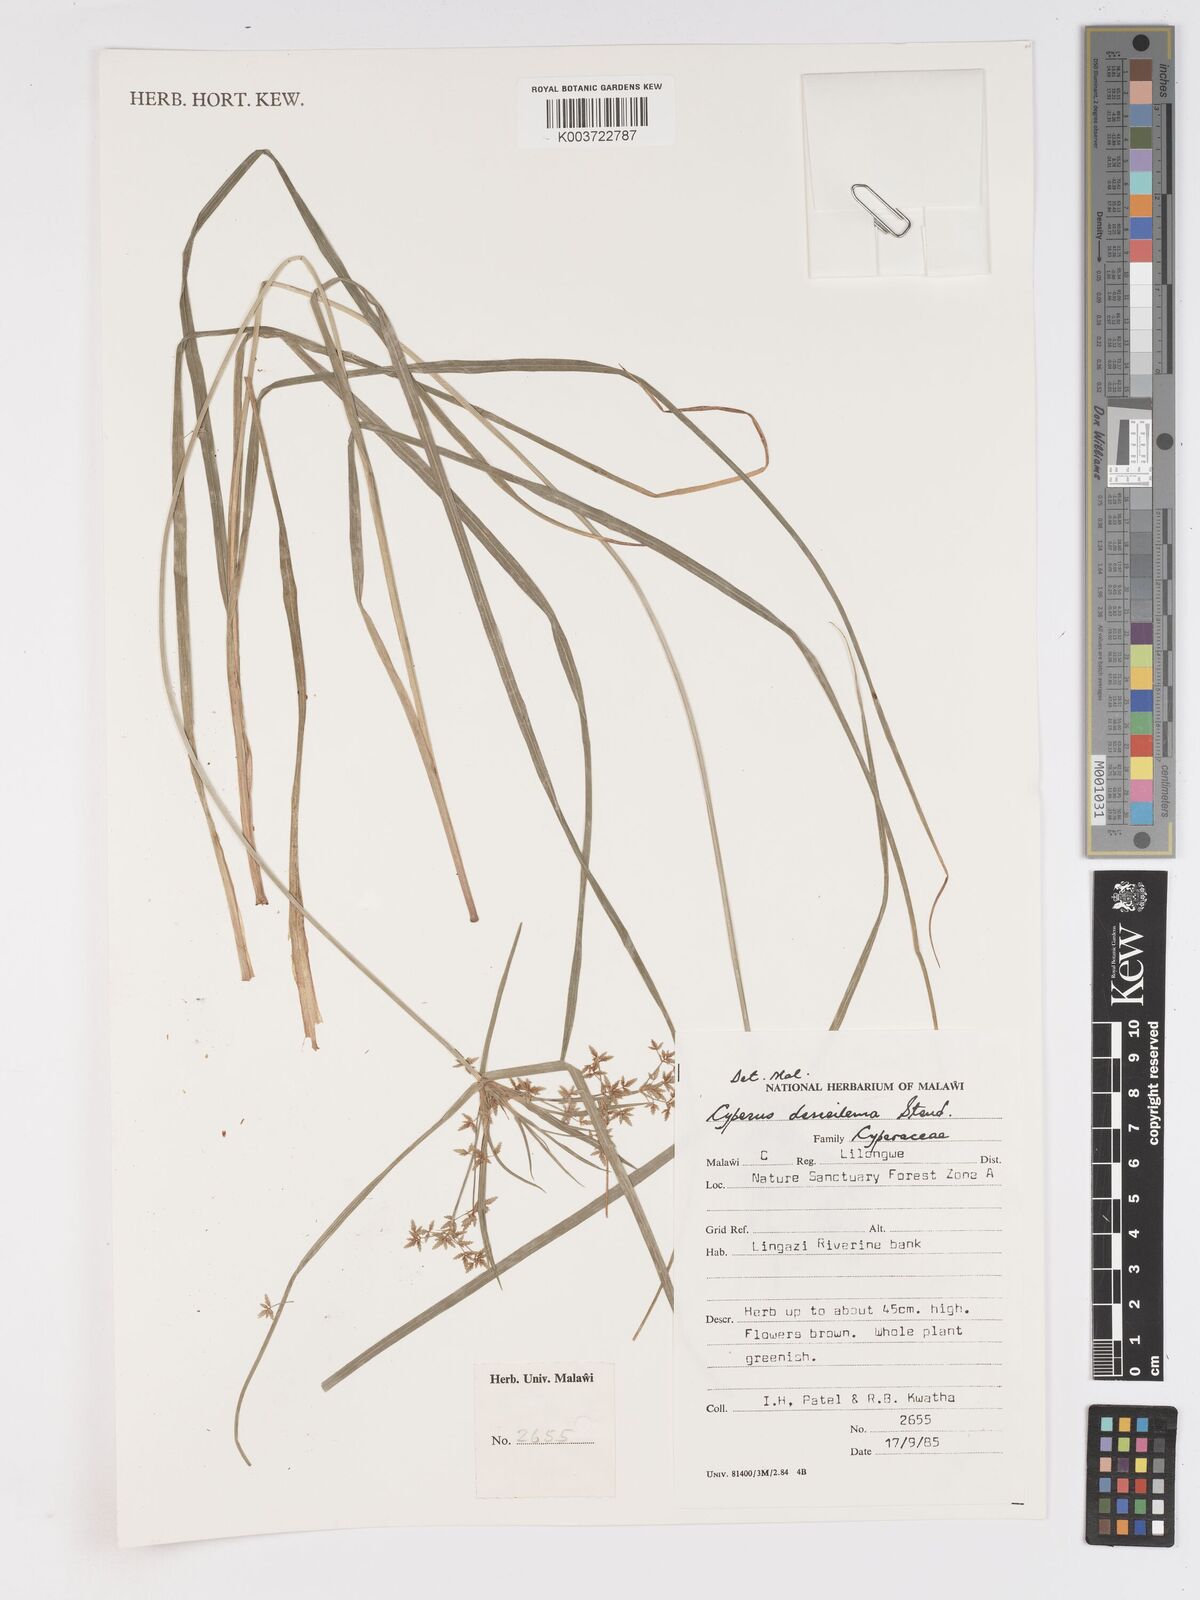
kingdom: Plantae
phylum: Tracheophyta
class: Liliopsida
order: Poales
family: Cyperaceae
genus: Cyperus
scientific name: Cyperus derreilema
